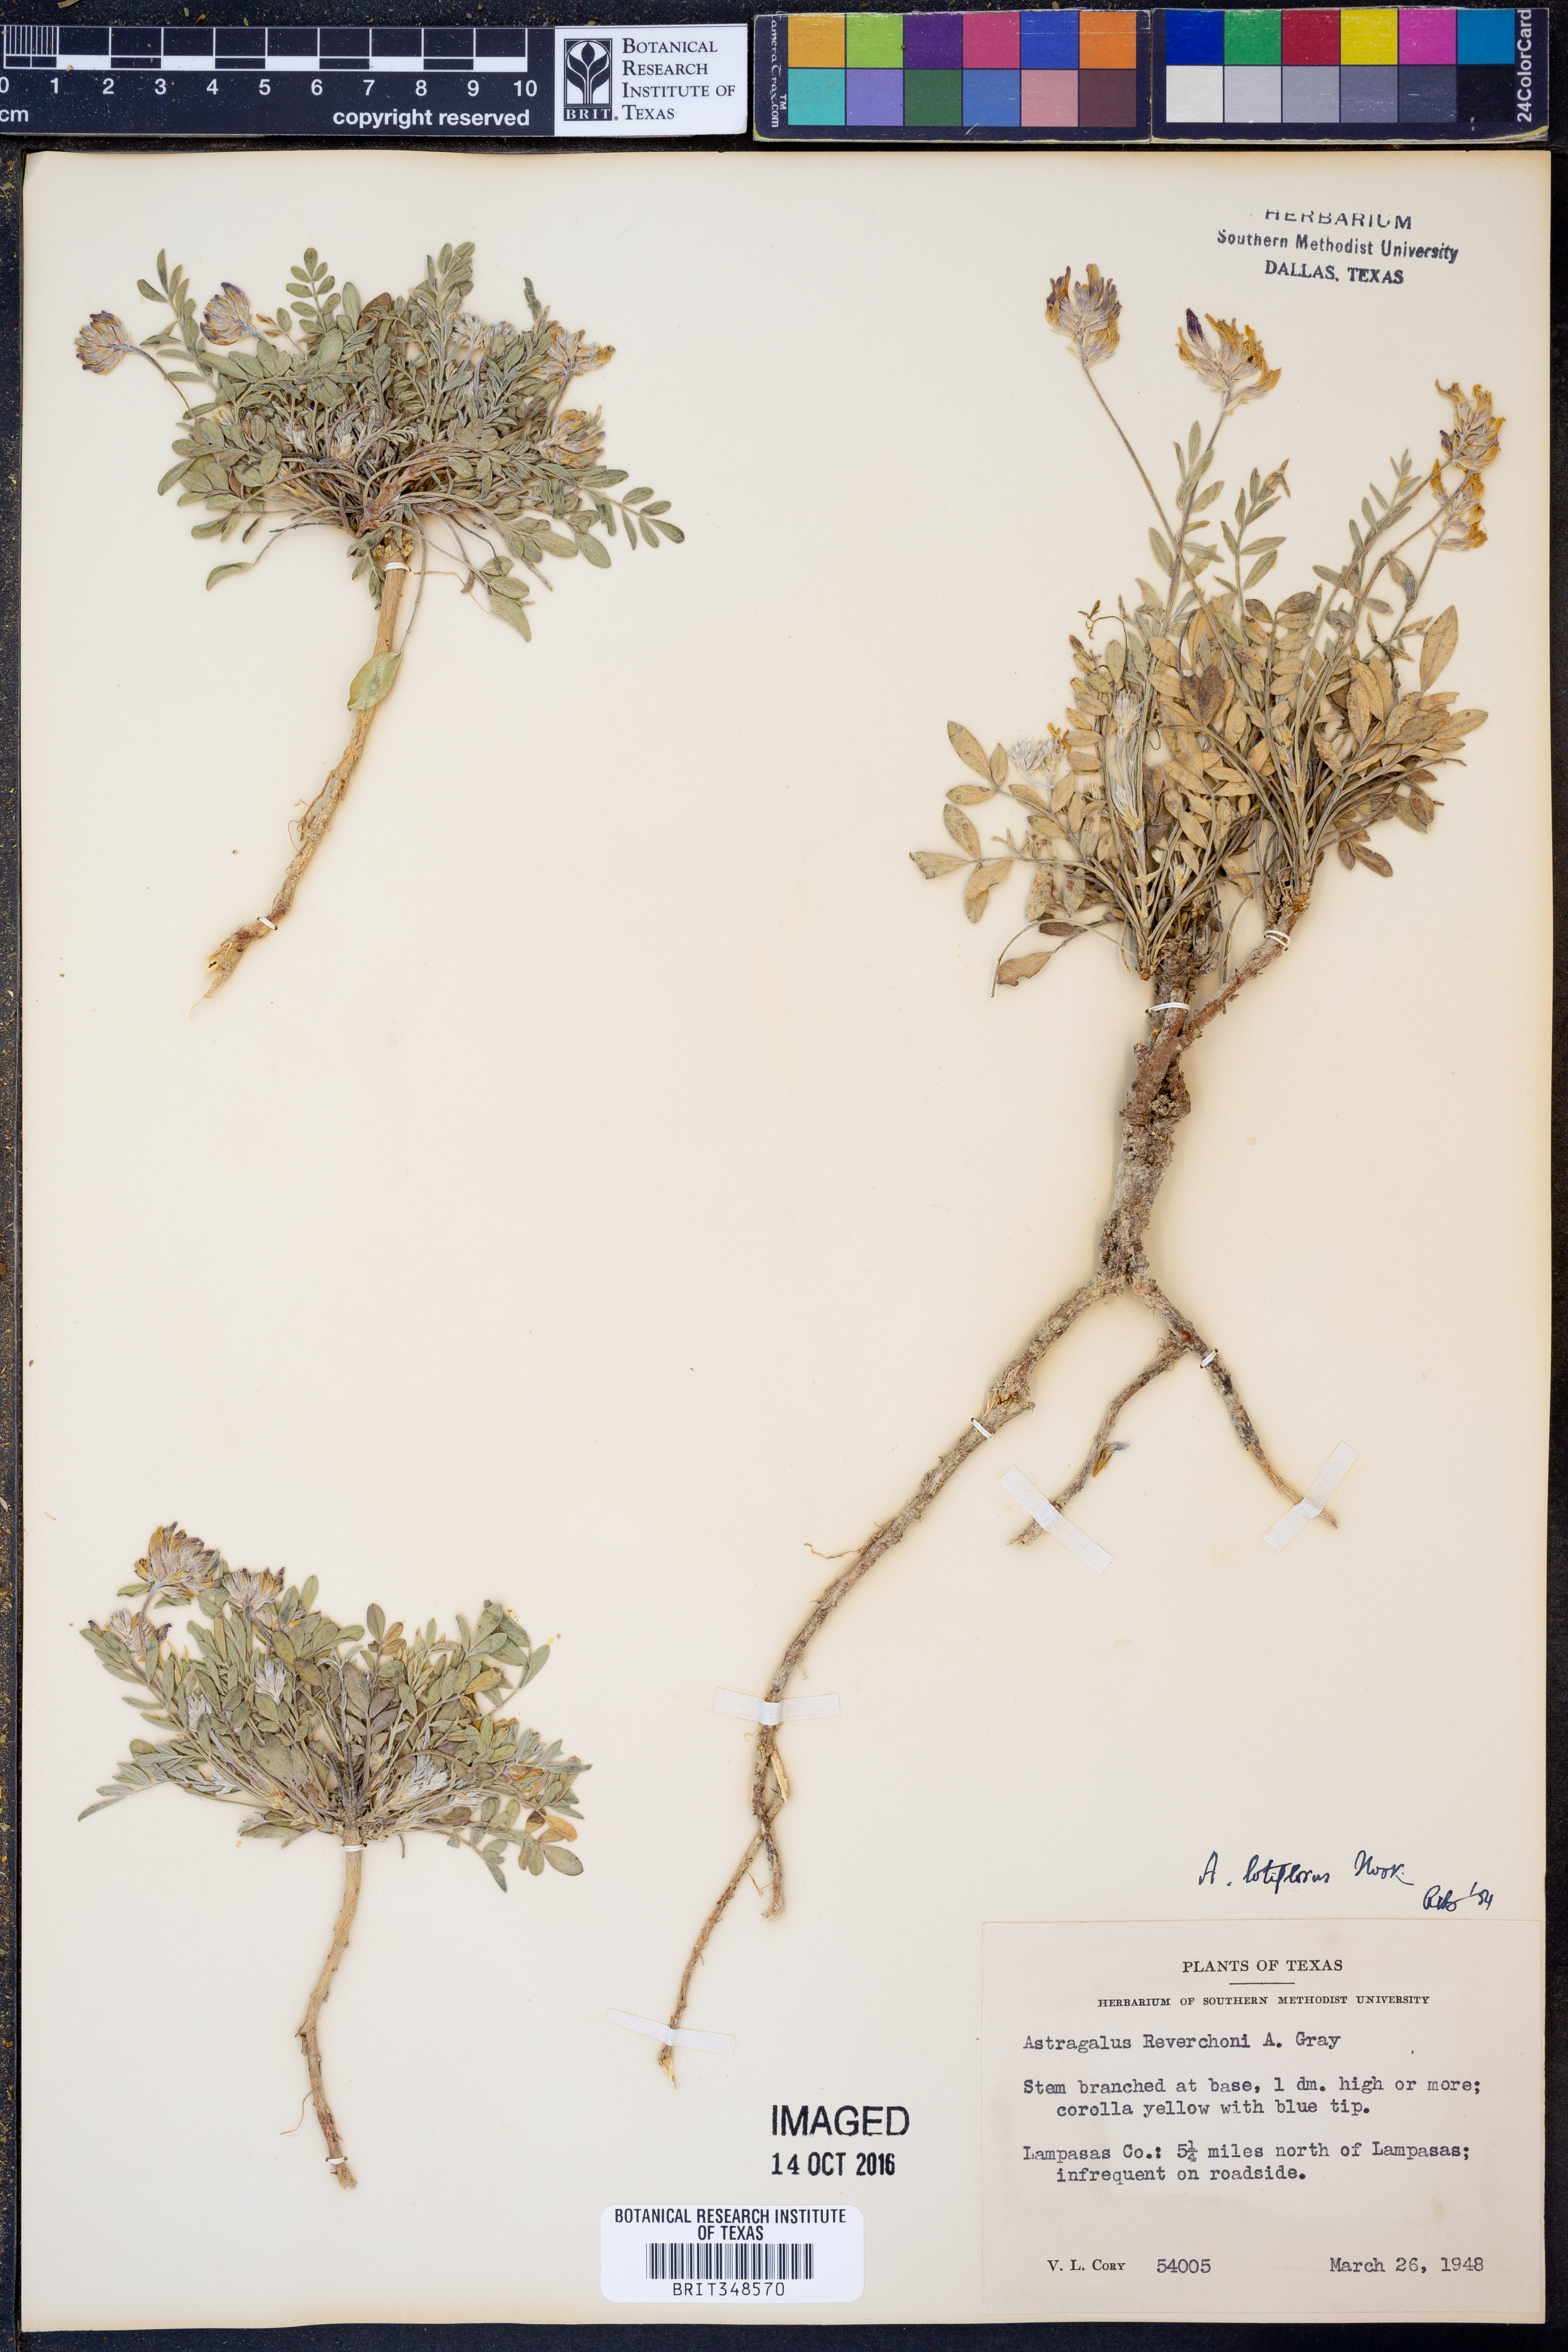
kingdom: Plantae
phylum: Tracheophyta
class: Magnoliopsida
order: Fabales
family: Fabaceae
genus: Astragalus
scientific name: Astragalus lotiflorus
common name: Lotus milk-vetch
